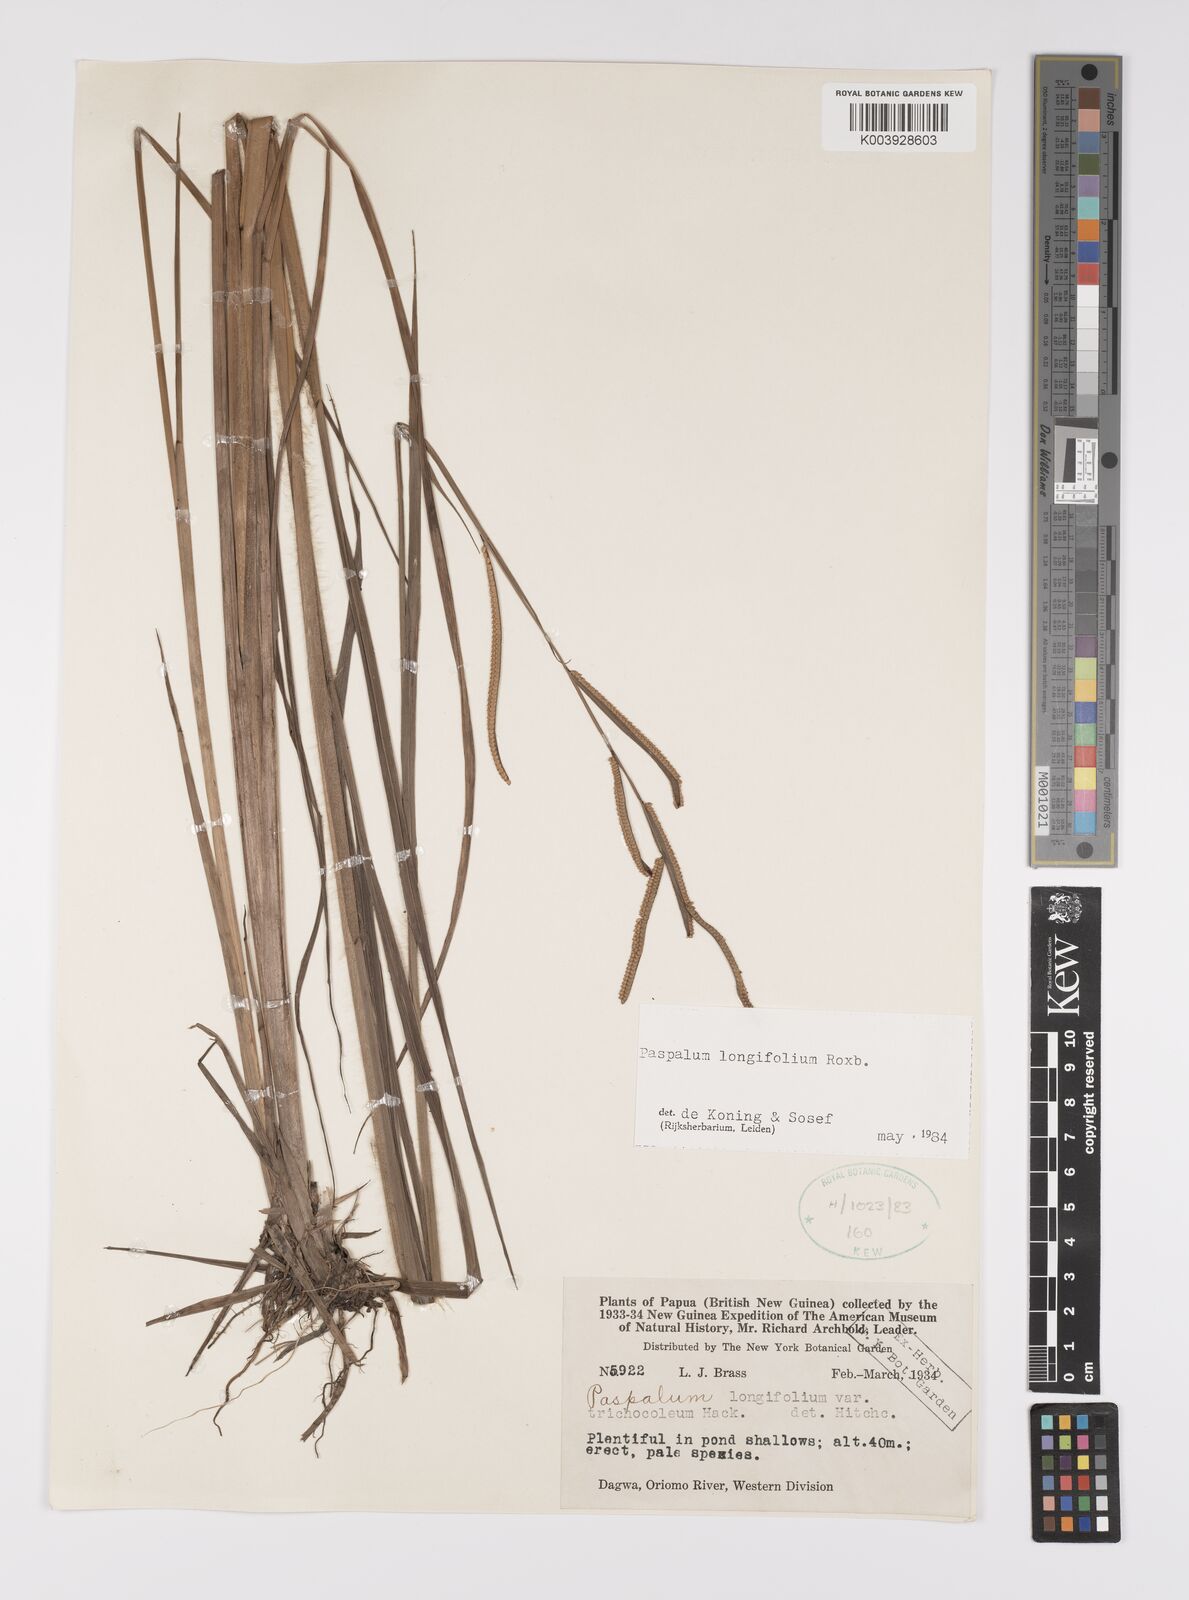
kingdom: Plantae
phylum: Tracheophyta
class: Liliopsida
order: Poales
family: Poaceae
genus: Paspalum
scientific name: Paspalum sumatrense
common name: Long-leaved paspalum
